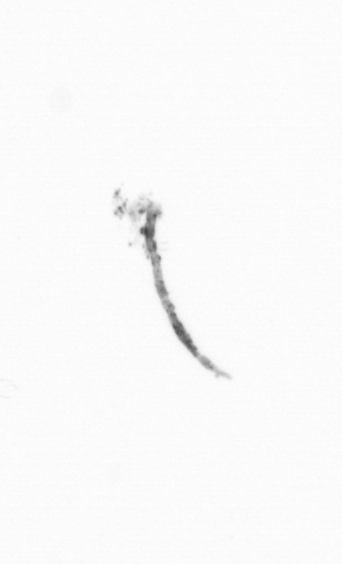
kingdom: Chromista
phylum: Ochrophyta
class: Bacillariophyceae
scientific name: Bacillariophyceae
